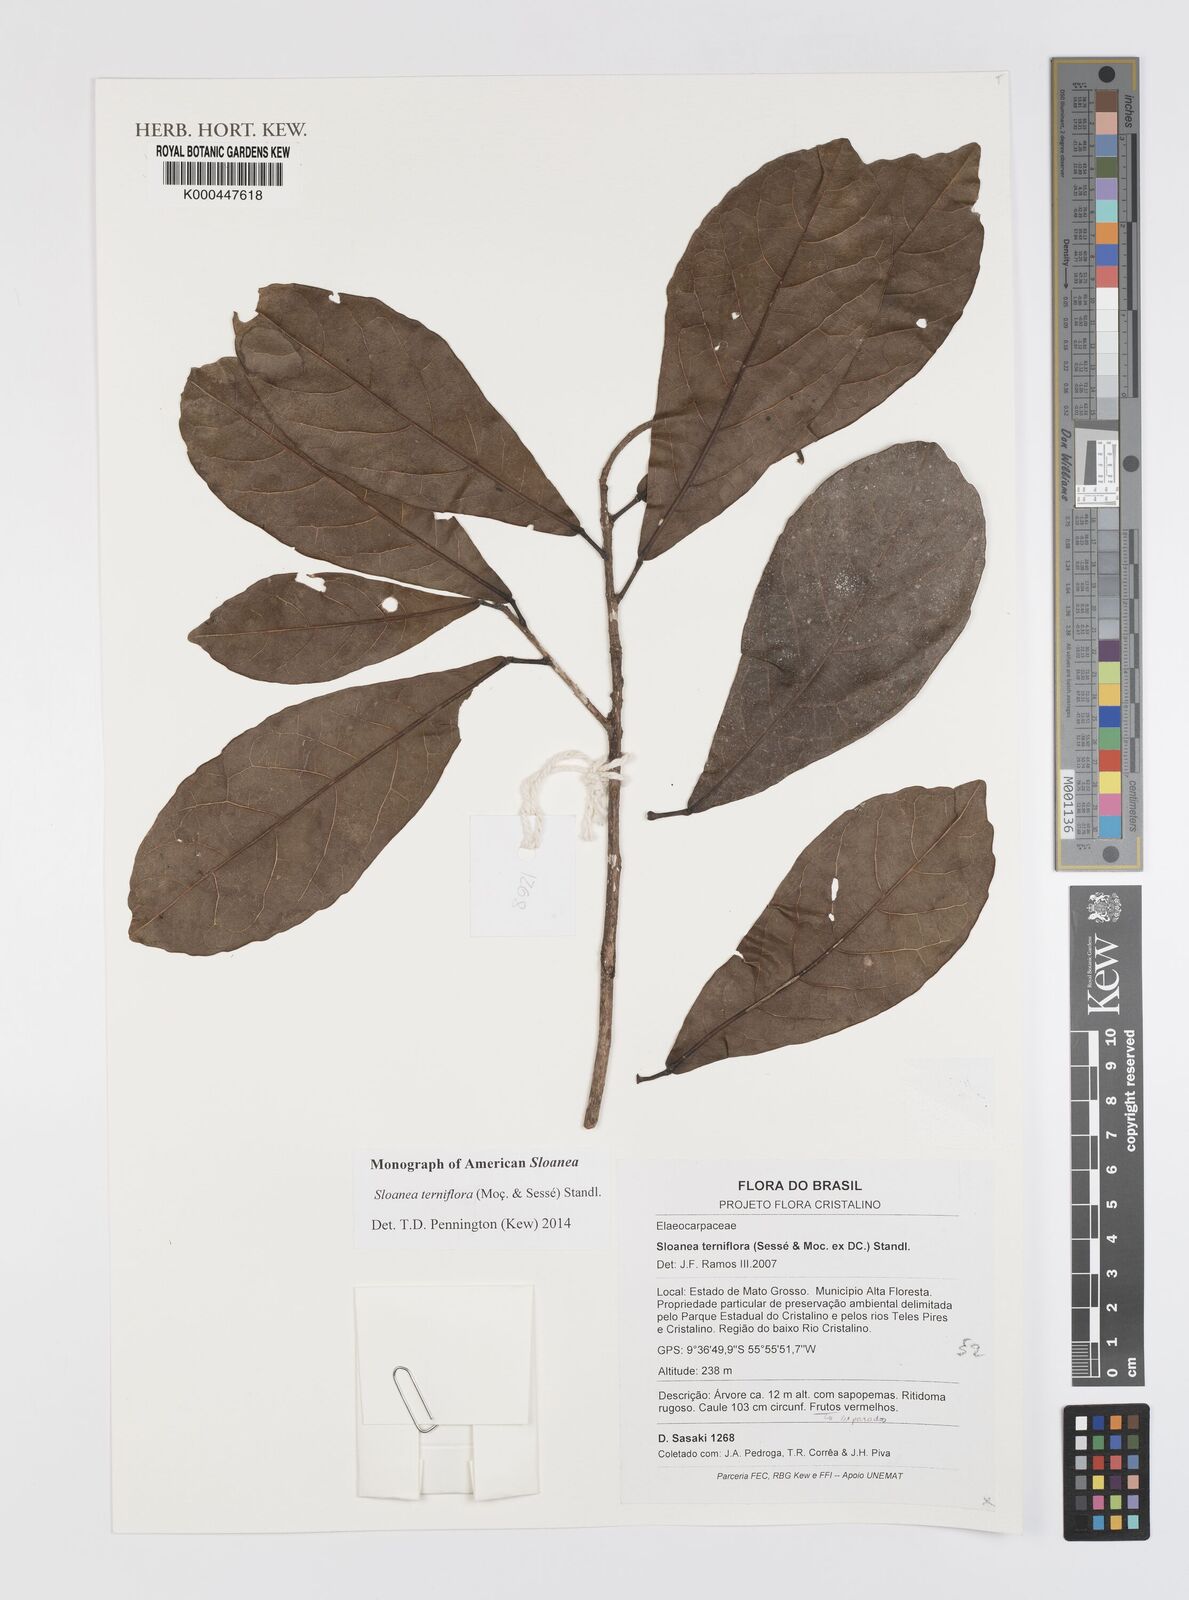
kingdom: Plantae
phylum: Tracheophyta
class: Magnoliopsida
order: Oxalidales
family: Elaeocarpaceae
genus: Sloanea
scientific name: Sloanea guianensis
